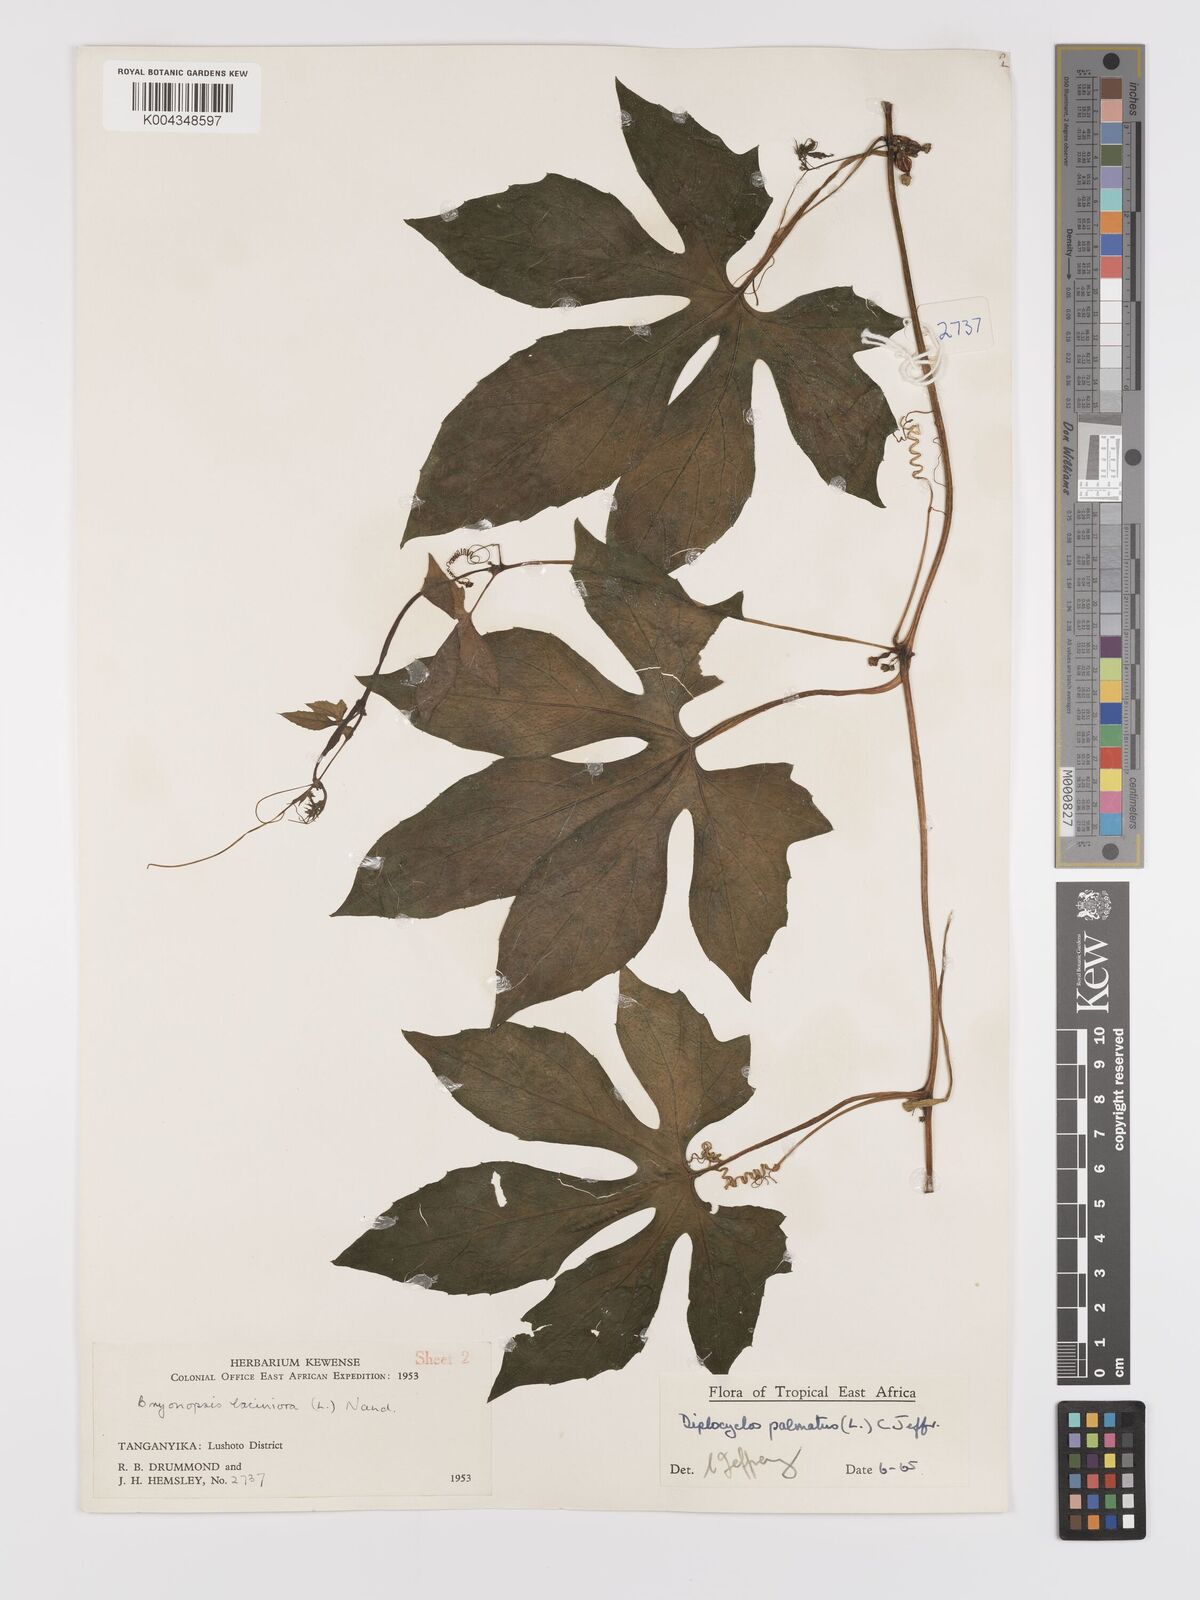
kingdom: Plantae
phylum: Tracheophyta
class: Magnoliopsida
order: Cucurbitales
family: Cucurbitaceae
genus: Diplocyclos
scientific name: Diplocyclos palmatus
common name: Striped-cucumber
